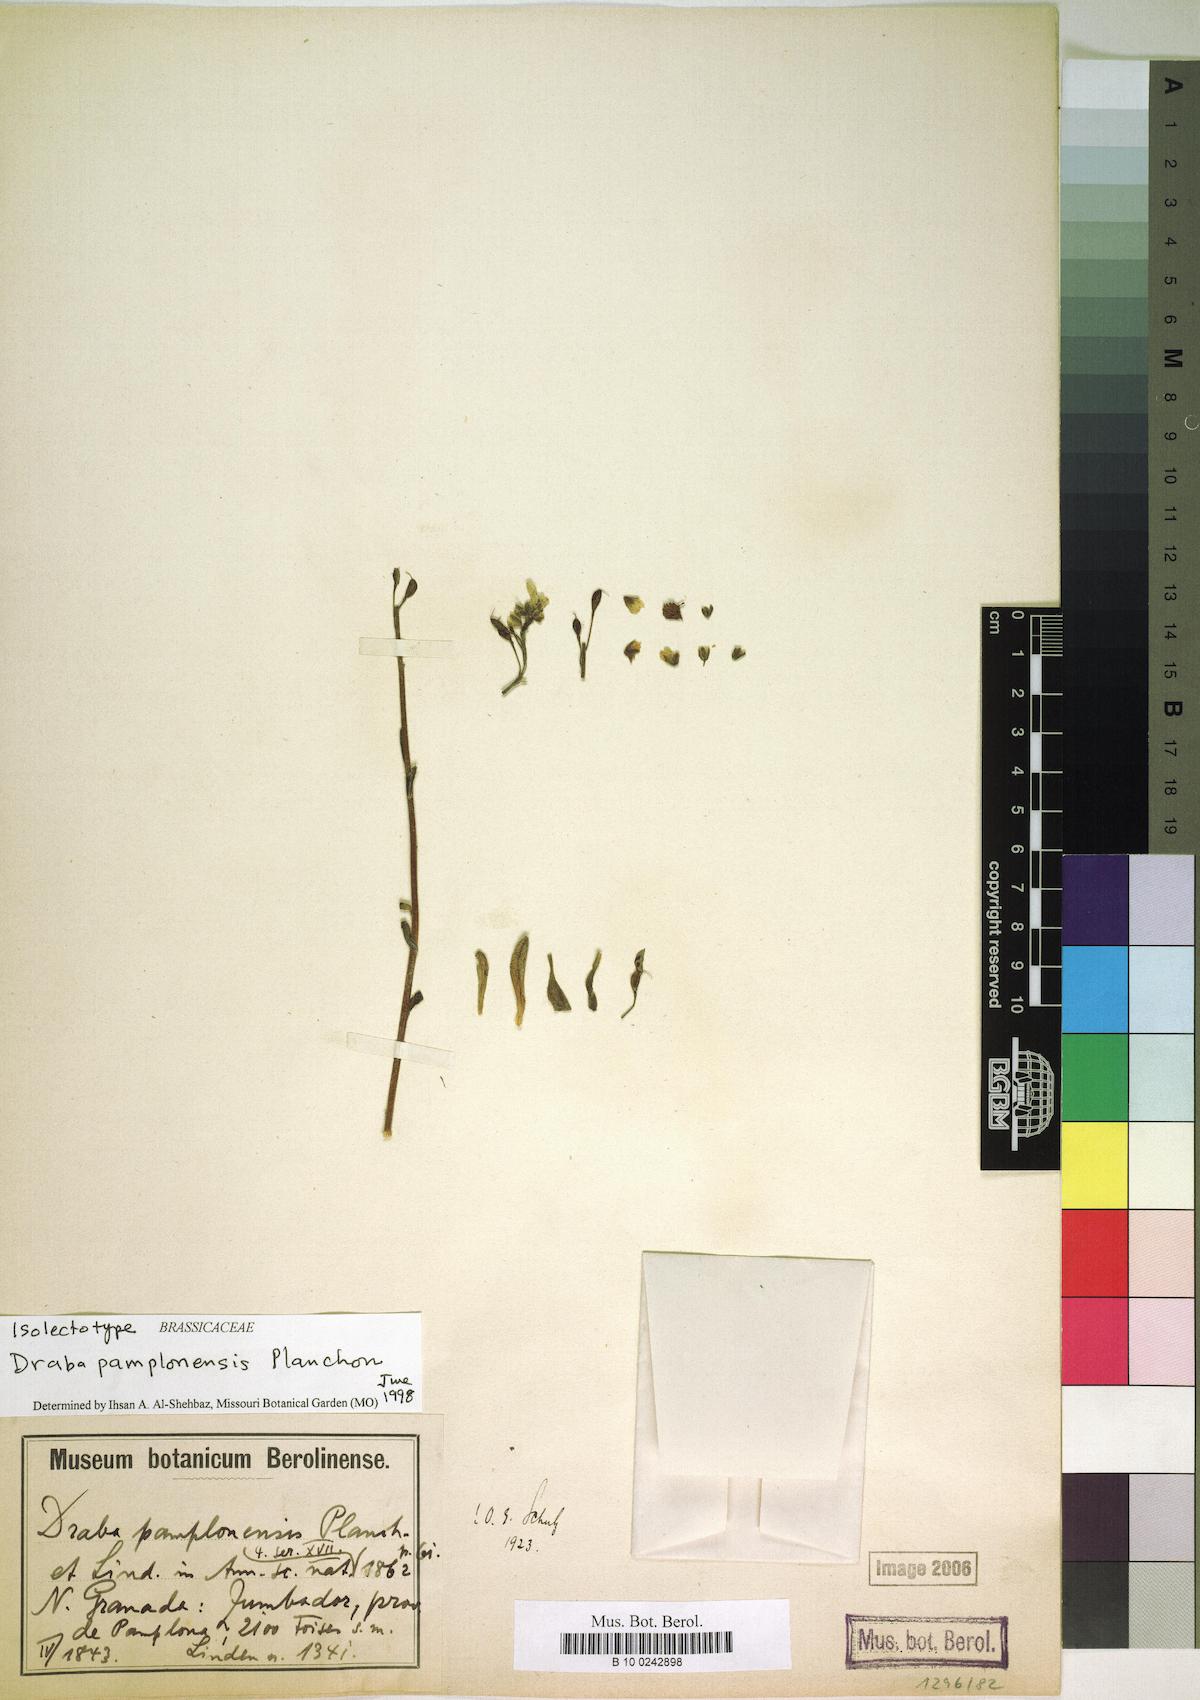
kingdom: Plantae
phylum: Tracheophyta
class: Magnoliopsida
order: Brassicales
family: Brassicaceae
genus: Draba
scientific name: Draba pamplonensis
